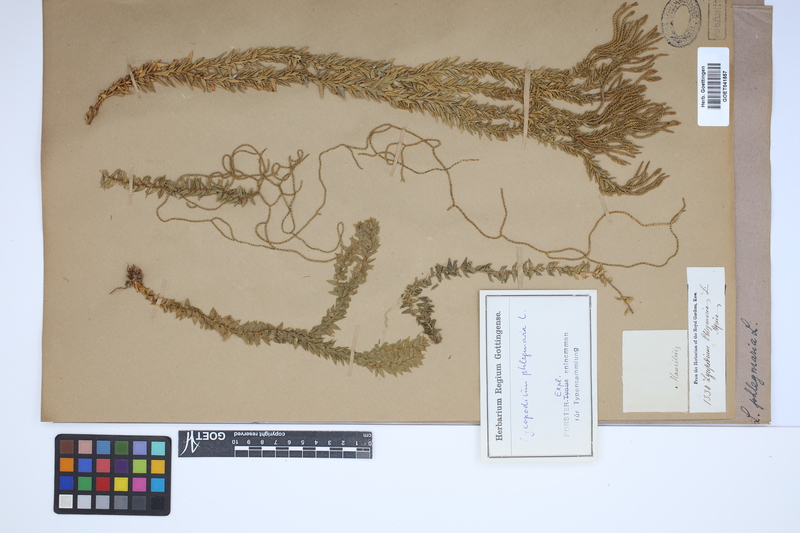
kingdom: Plantae
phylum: Tracheophyta
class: Lycopodiopsida
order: Lycopodiales
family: Lycopodiaceae
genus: Phlegmariurus
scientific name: Phlegmariurus phlegmaria
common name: Coarse tassel-fern
